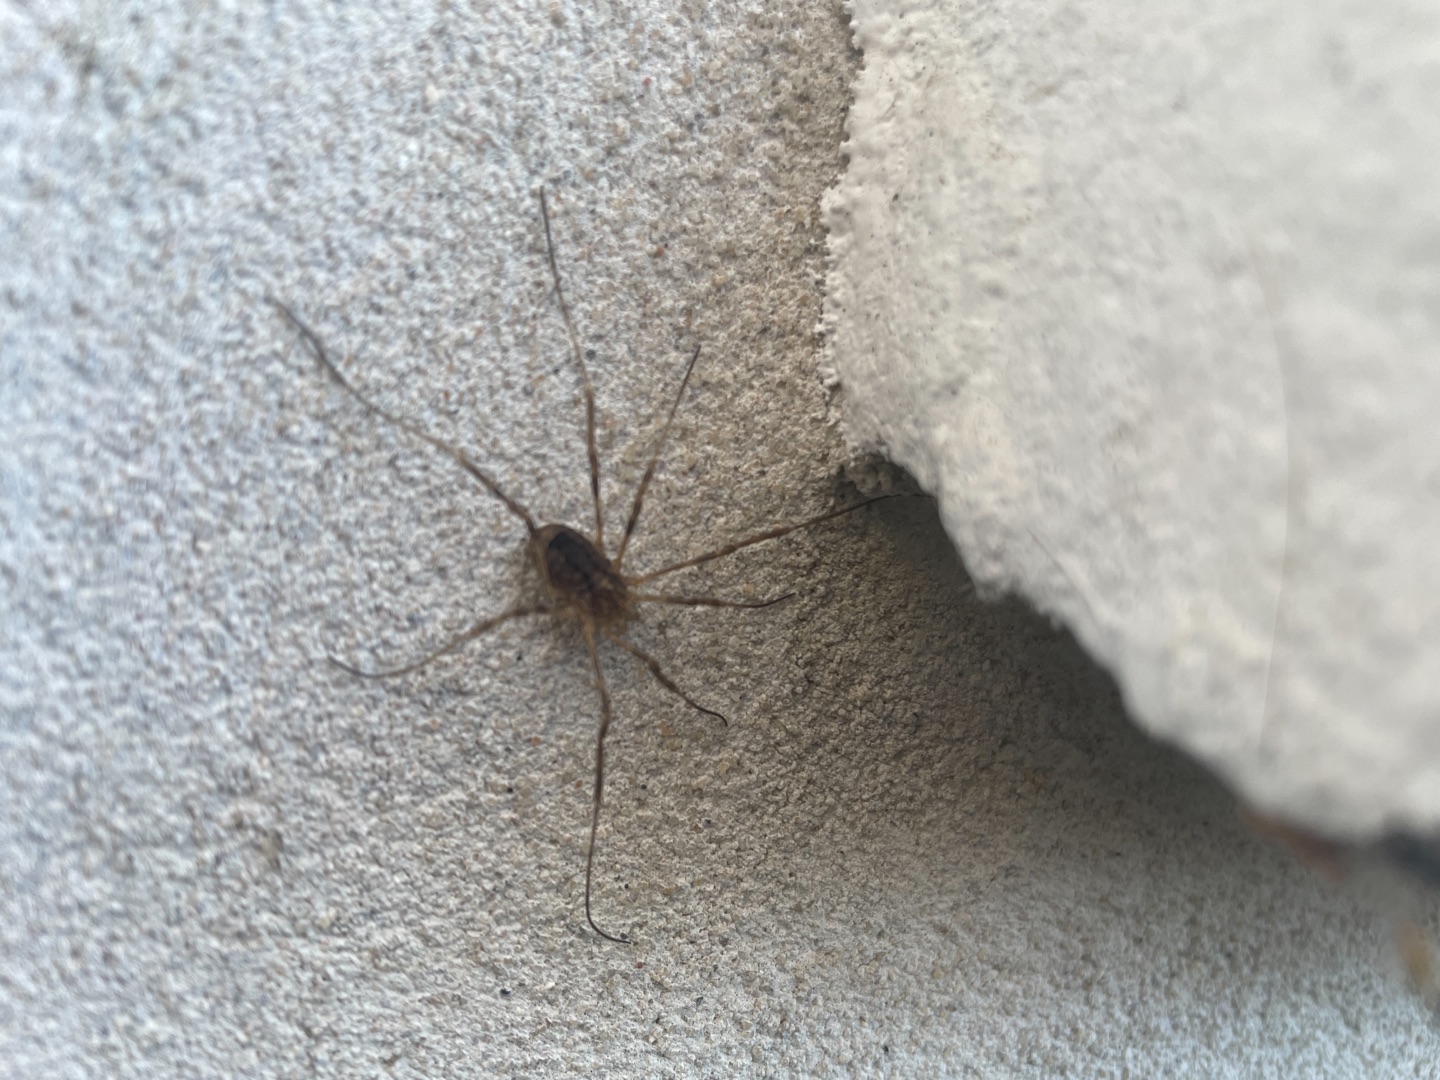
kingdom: Animalia
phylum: Arthropoda
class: Arachnida
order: Opiliones
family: Phalangiidae
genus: Odiellus
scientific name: Odiellus spinosus
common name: Kæmpemejer
